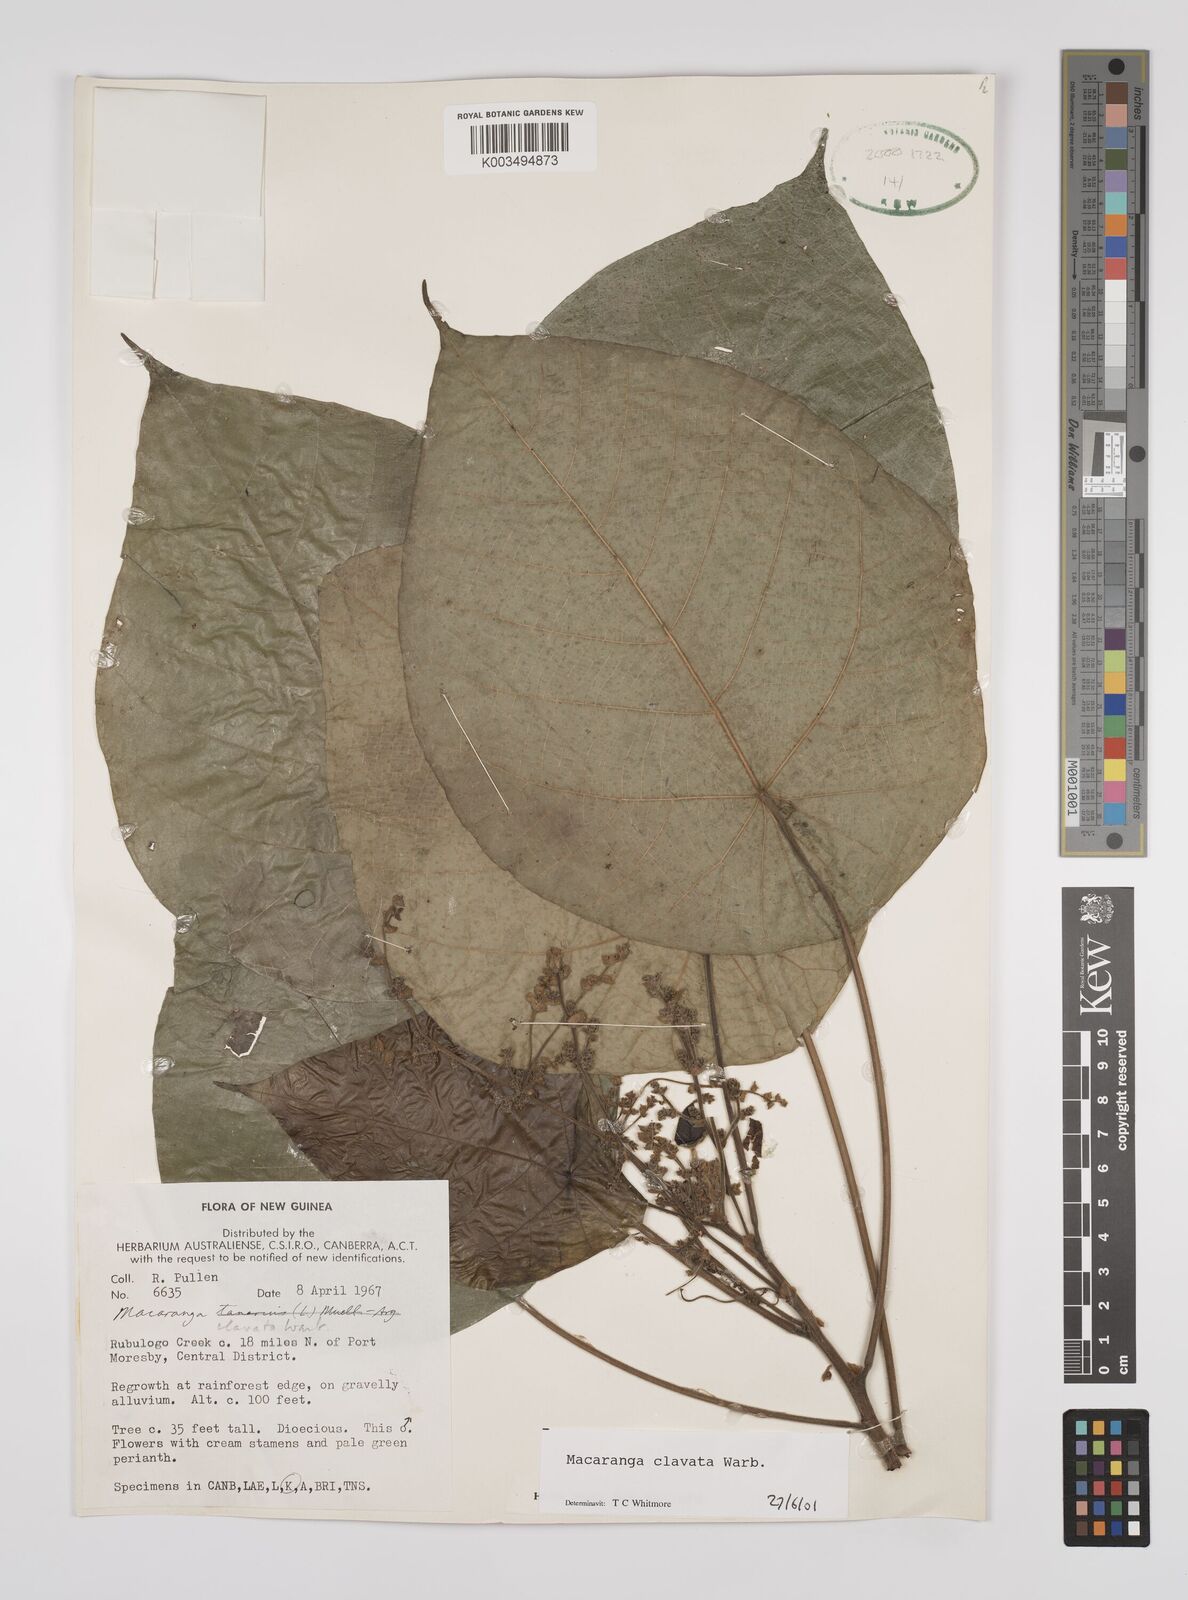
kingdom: Plantae
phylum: Tracheophyta
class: Magnoliopsida
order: Malpighiales
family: Euphorbiaceae
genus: Macaranga
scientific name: Macaranga clavata
